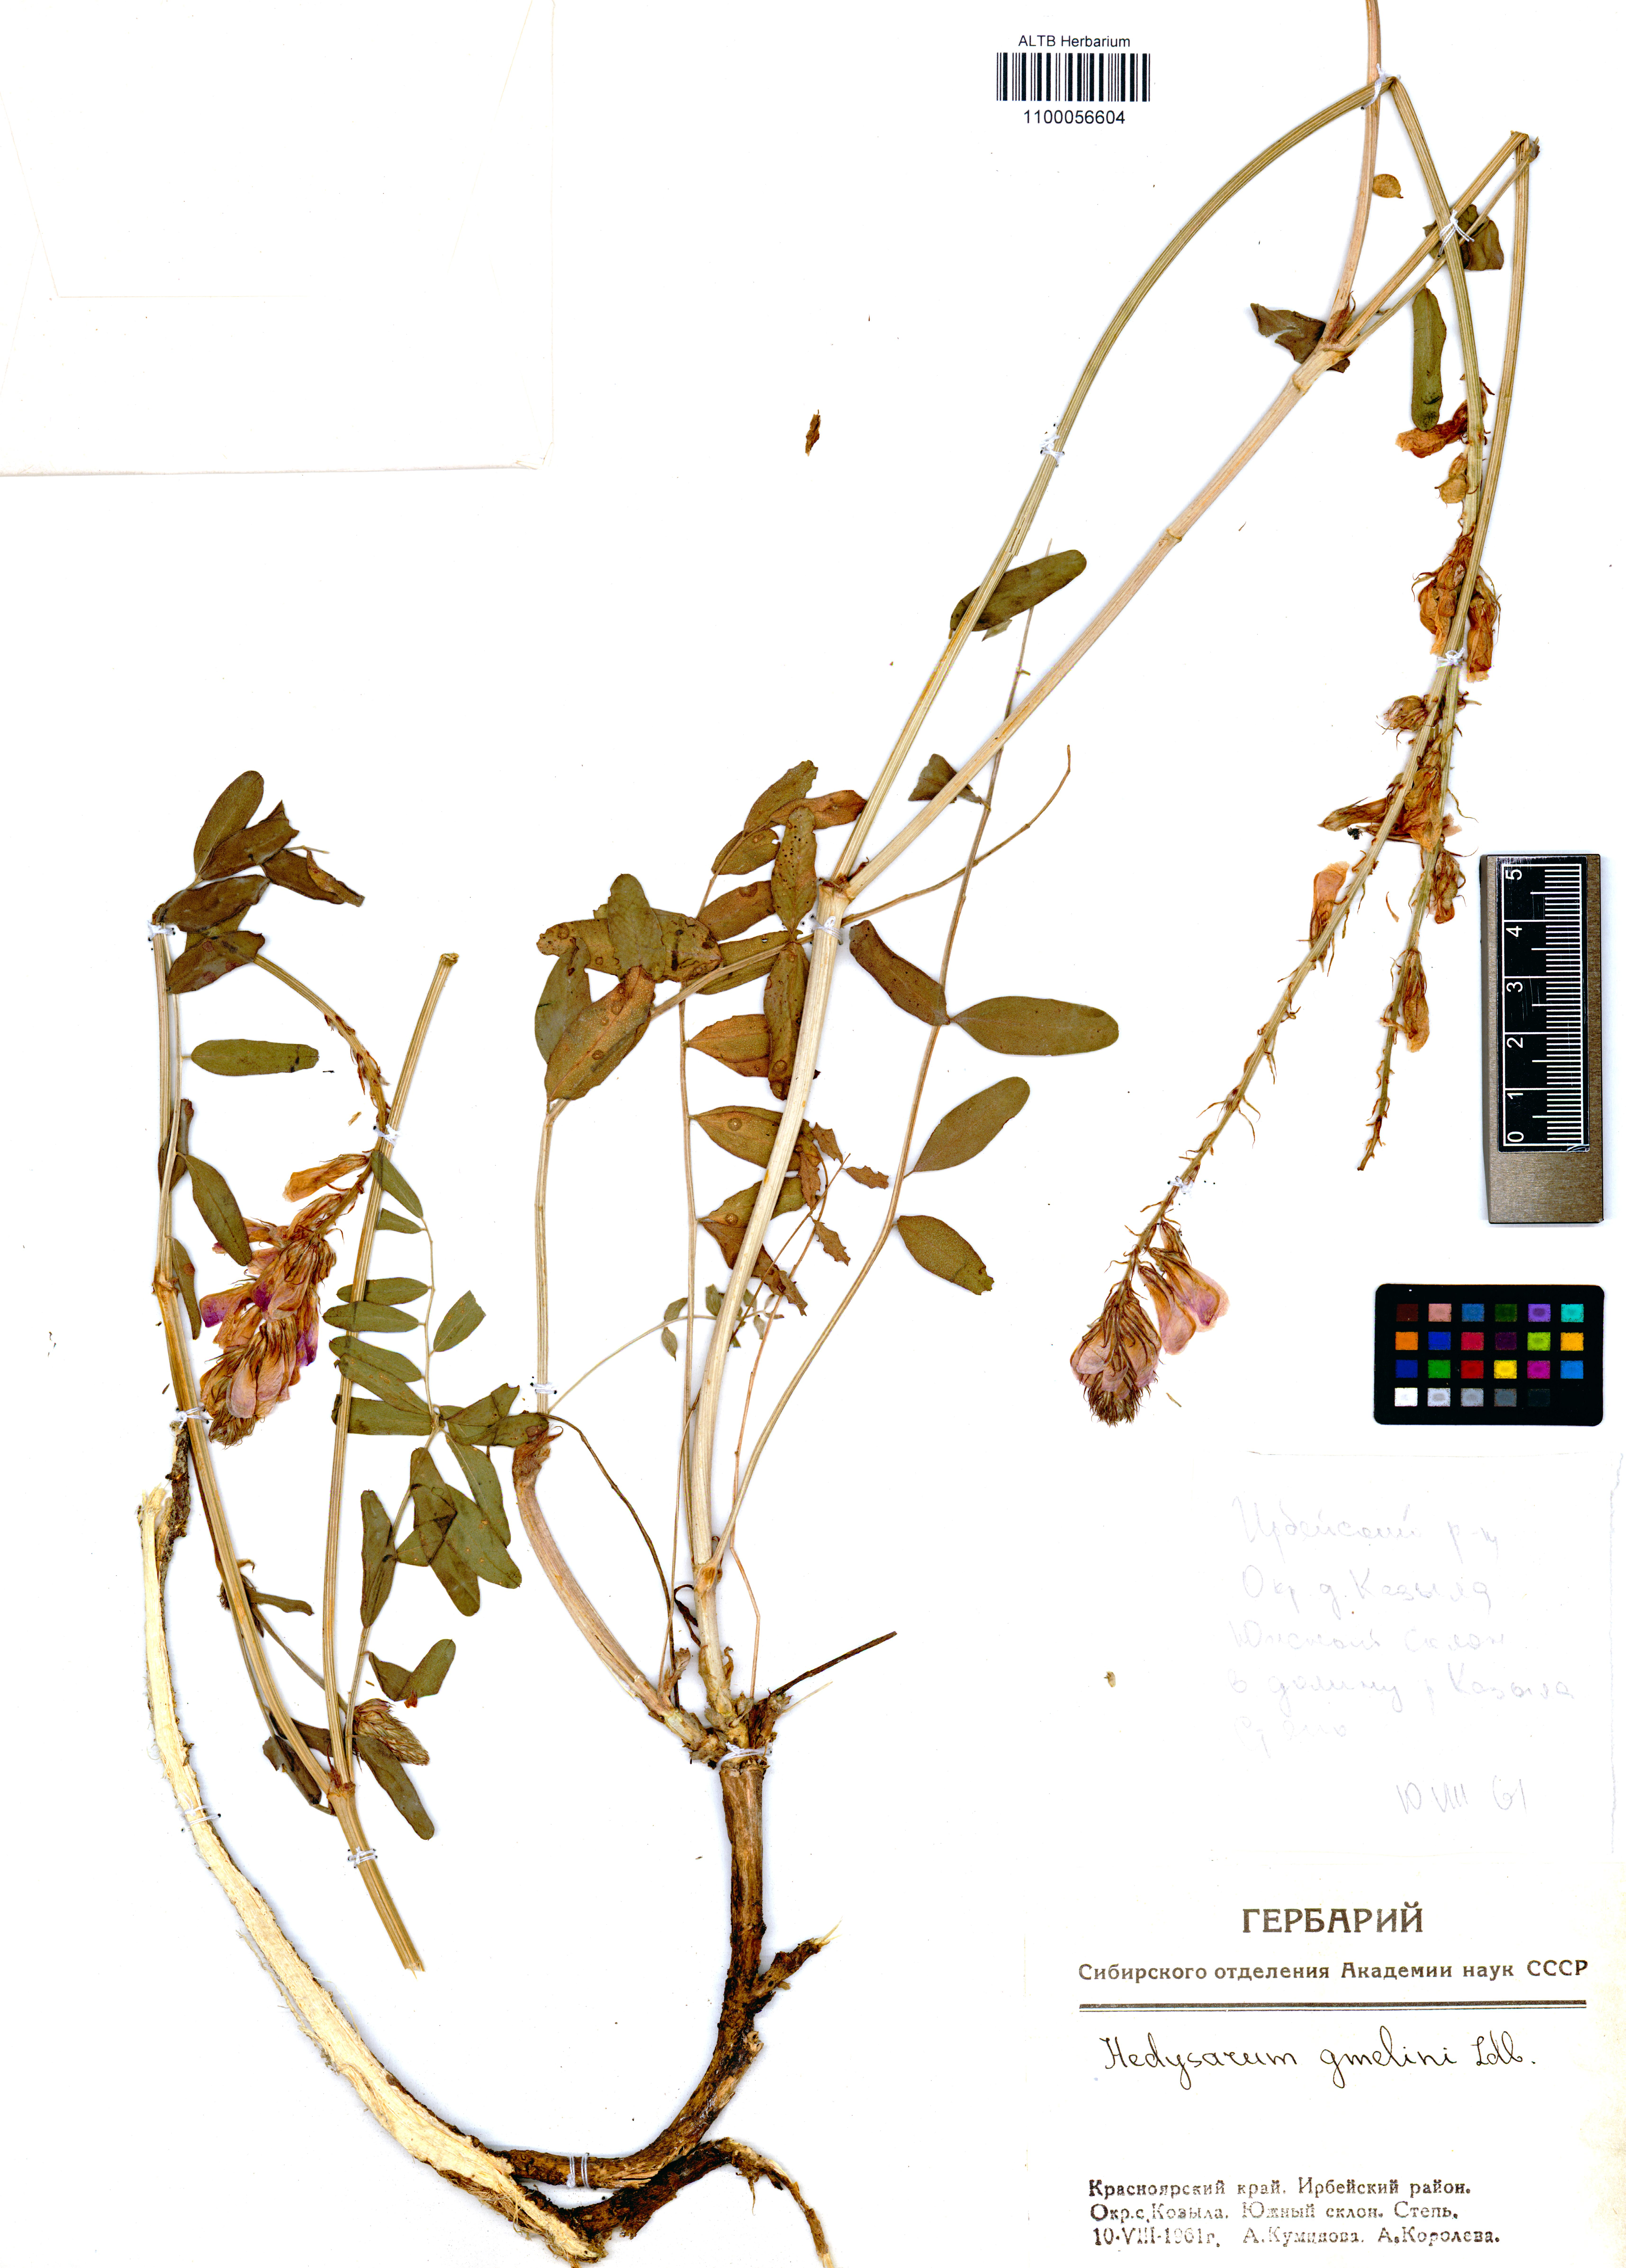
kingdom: Plantae
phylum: Tracheophyta
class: Magnoliopsida
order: Fabales
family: Fabaceae
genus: Hedysarum
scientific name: Hedysarum gmelinii
